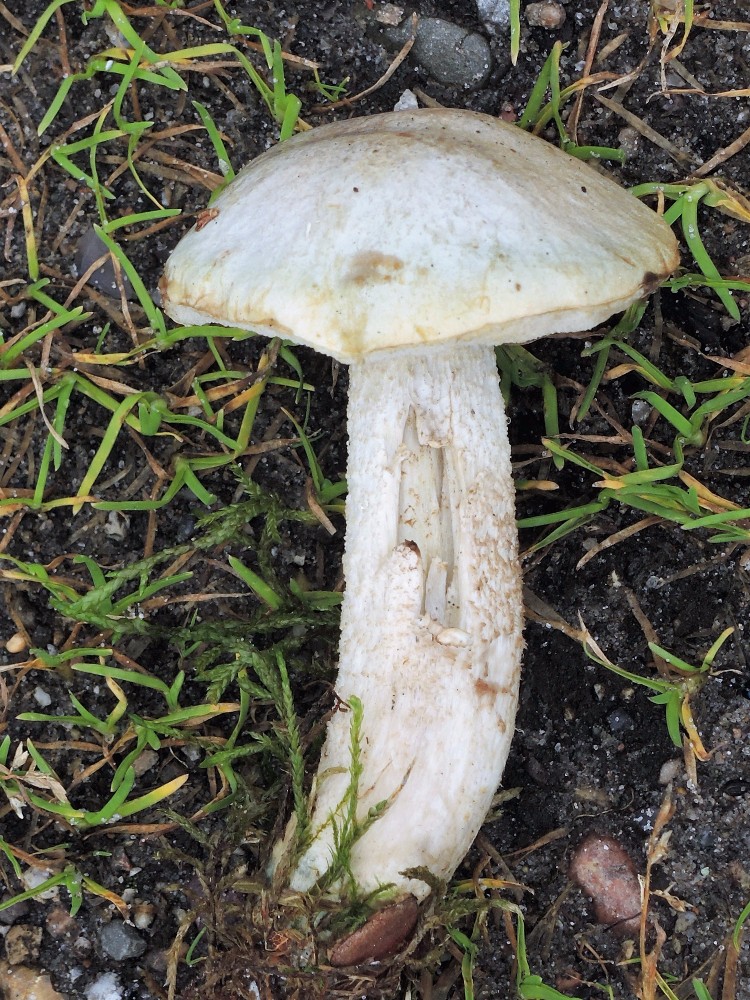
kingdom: Fungi
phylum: Basidiomycota
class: Agaricomycetes
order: Boletales
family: Boletaceae
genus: Leccinum
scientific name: Leccinum scabrum
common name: hvid skælrørhat
